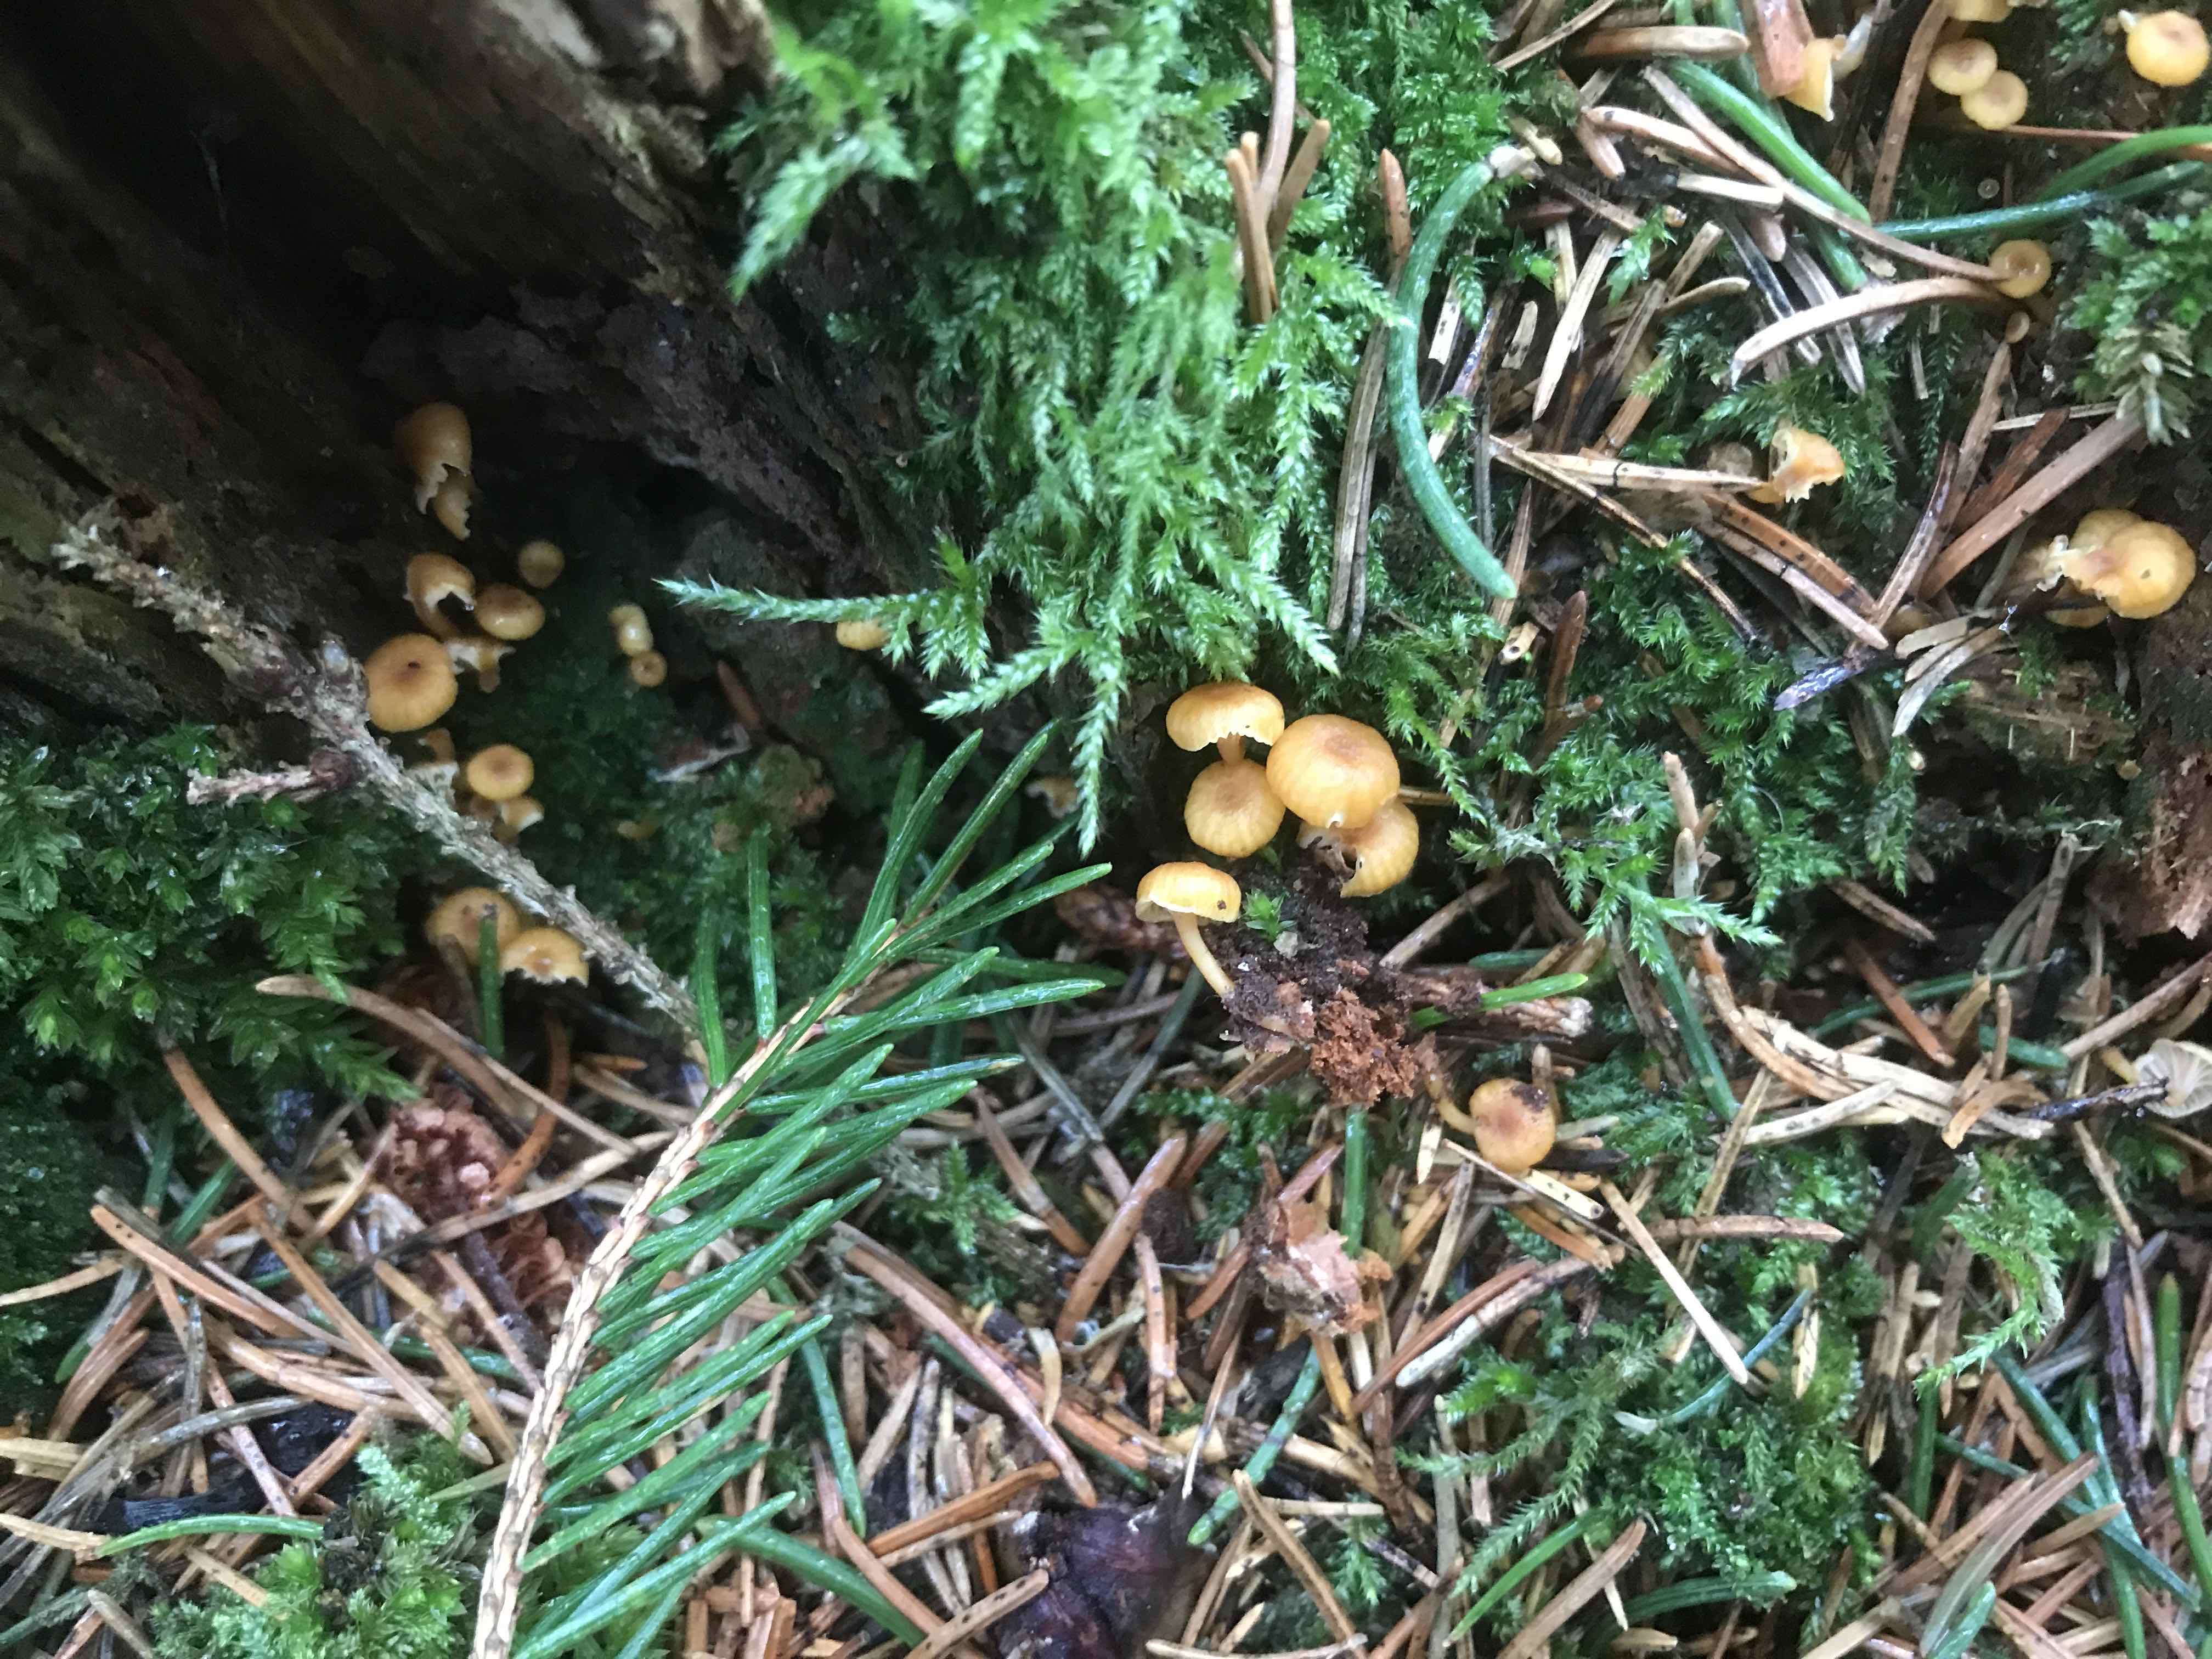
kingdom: Fungi
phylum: Basidiomycota
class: Agaricomycetes
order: Agaricales
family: Mycenaceae
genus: Xeromphalina
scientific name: Xeromphalina campanella
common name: klokke-tørhat
